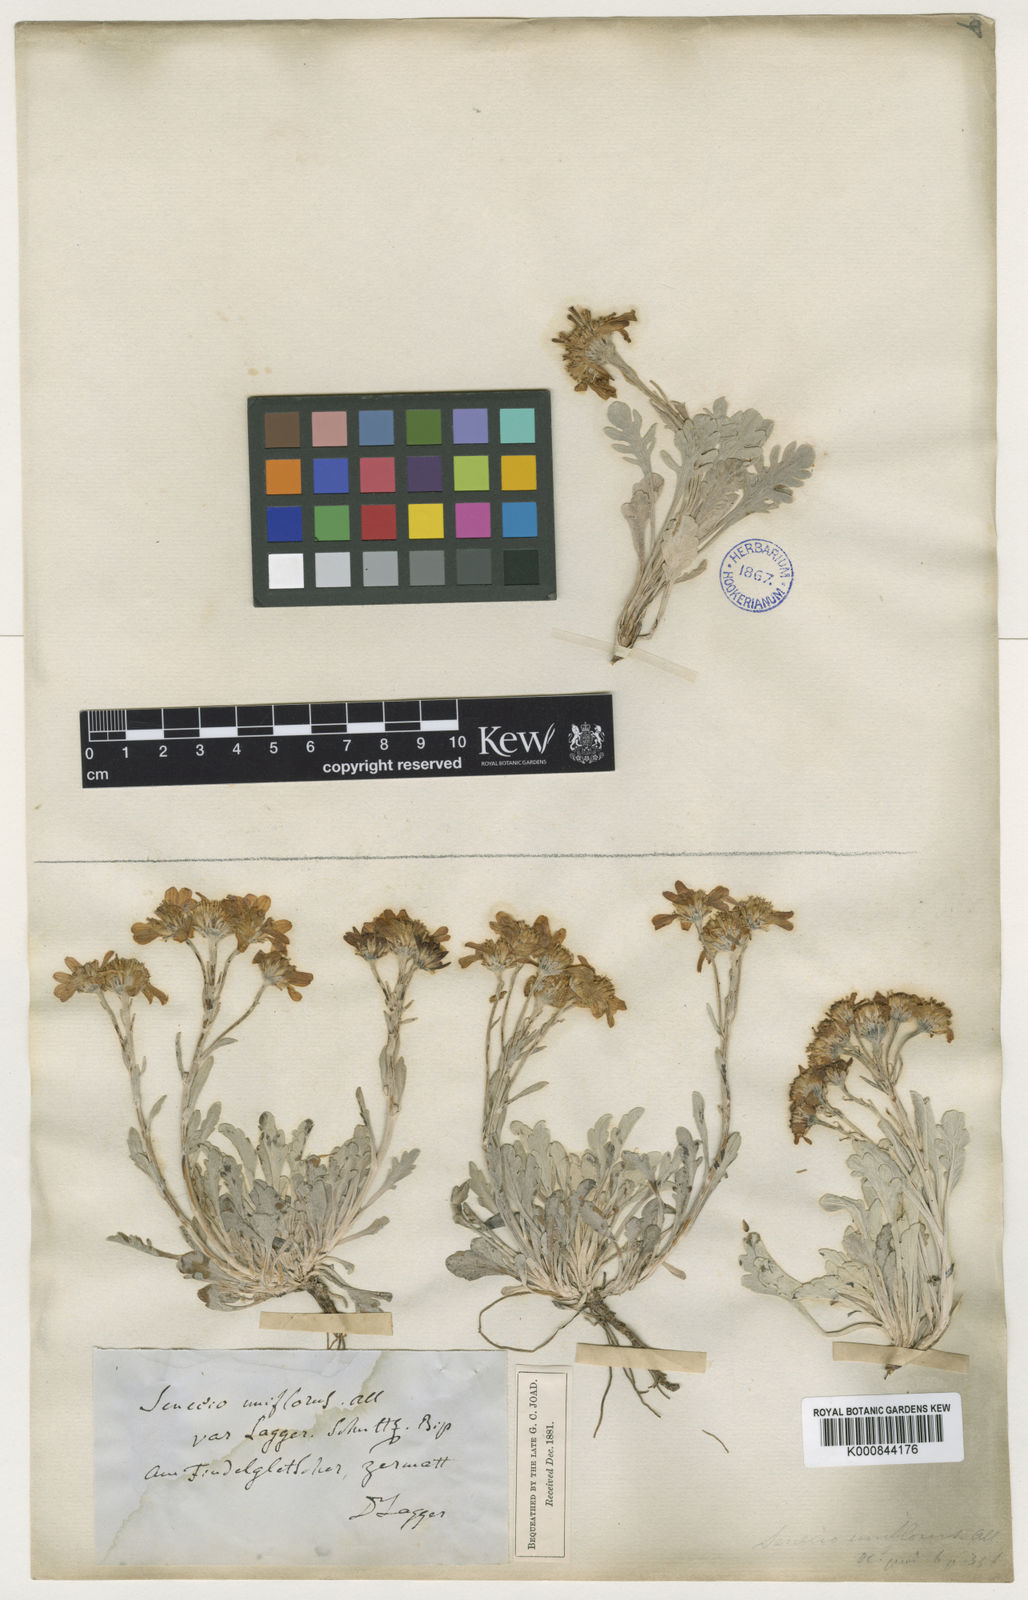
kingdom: Plantae
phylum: Tracheophyta
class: Magnoliopsida
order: Asterales
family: Asteraceae
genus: Jacobaea
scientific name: Jacobaea incana
